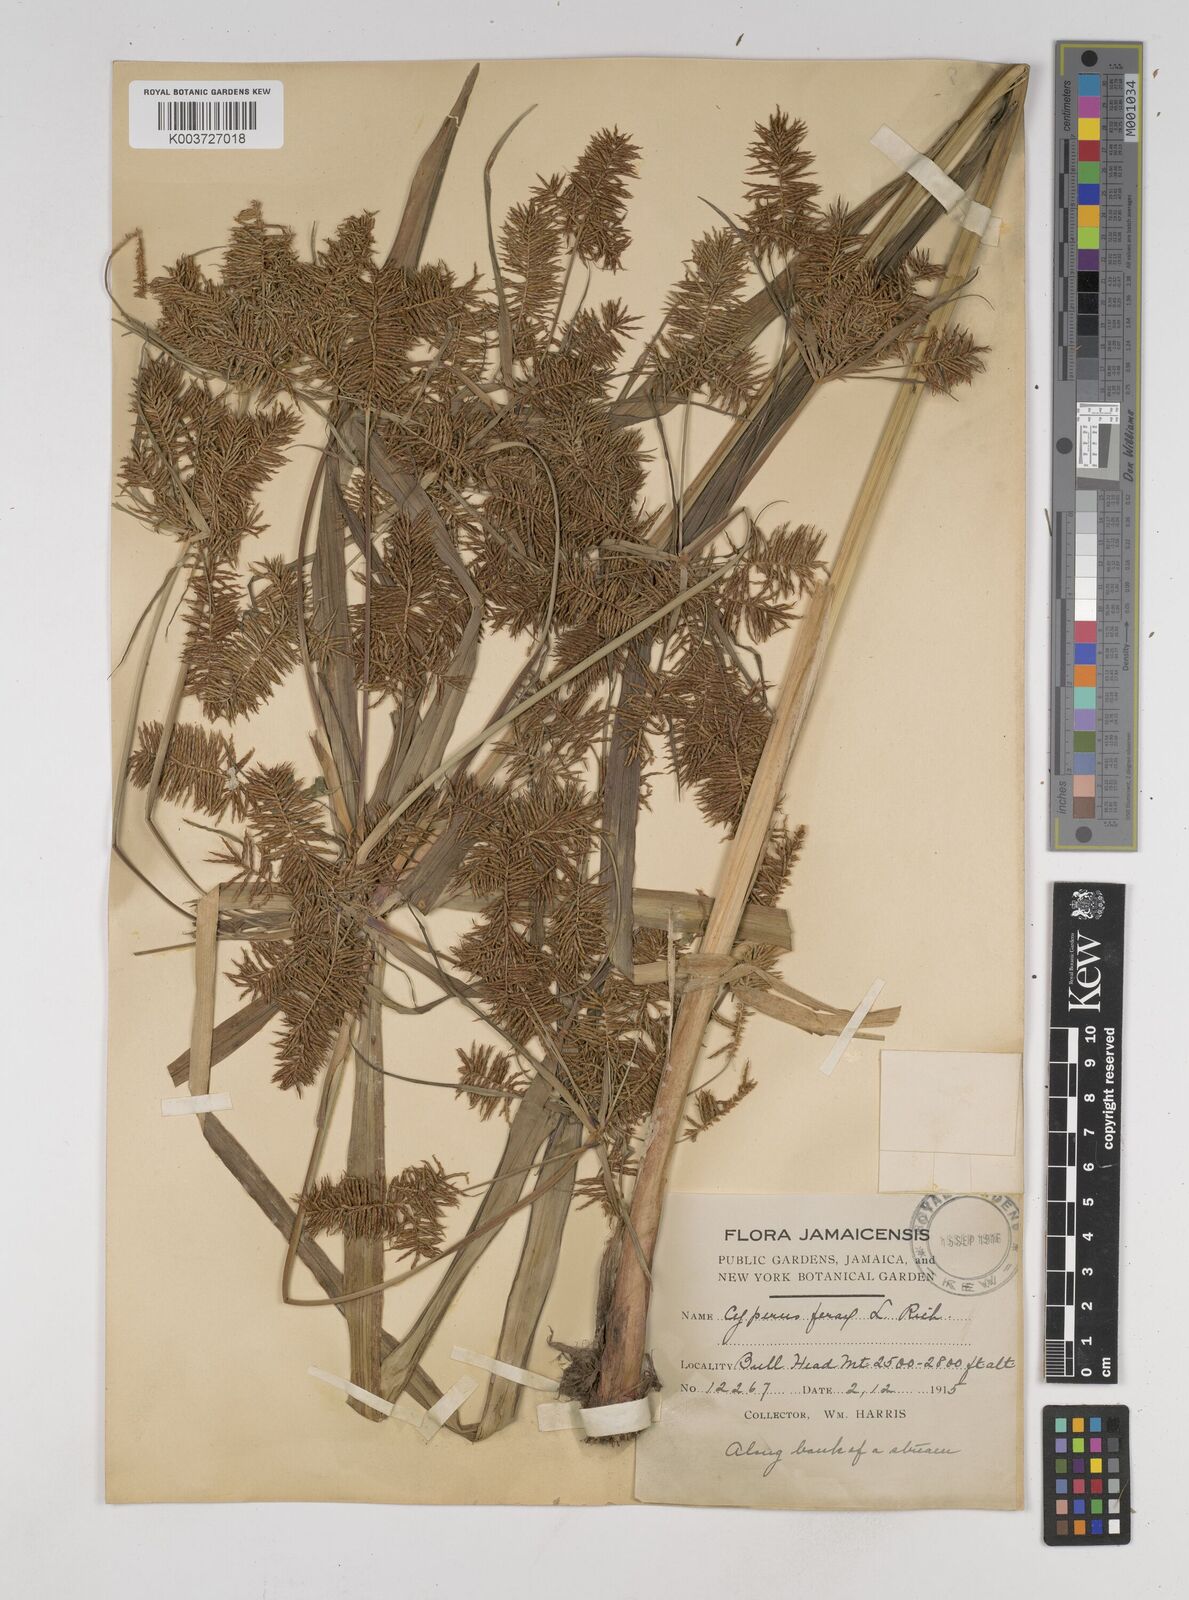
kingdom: Plantae
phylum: Tracheophyta
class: Liliopsida
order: Poales
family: Cyperaceae
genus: Cyperus
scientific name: Cyperus odoratus
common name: Fragrant flatsedge
